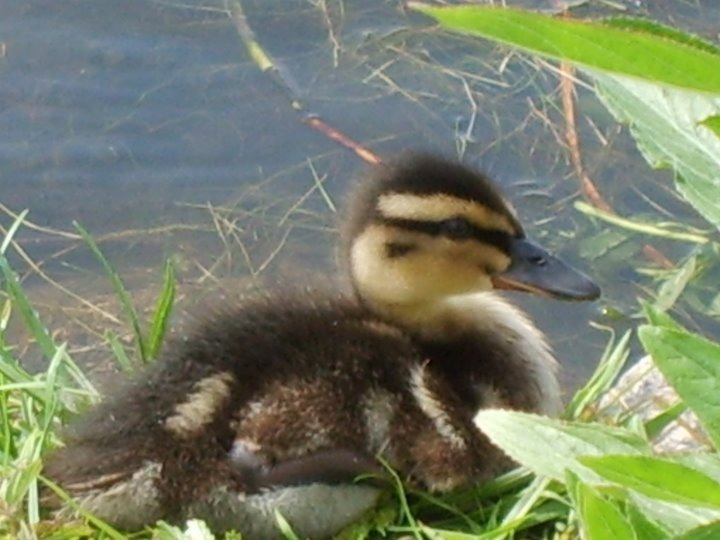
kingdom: Animalia
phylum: Chordata
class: Aves
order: Anseriformes
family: Anatidae
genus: Anas
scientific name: Anas platyrhynchos
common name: Gråand
